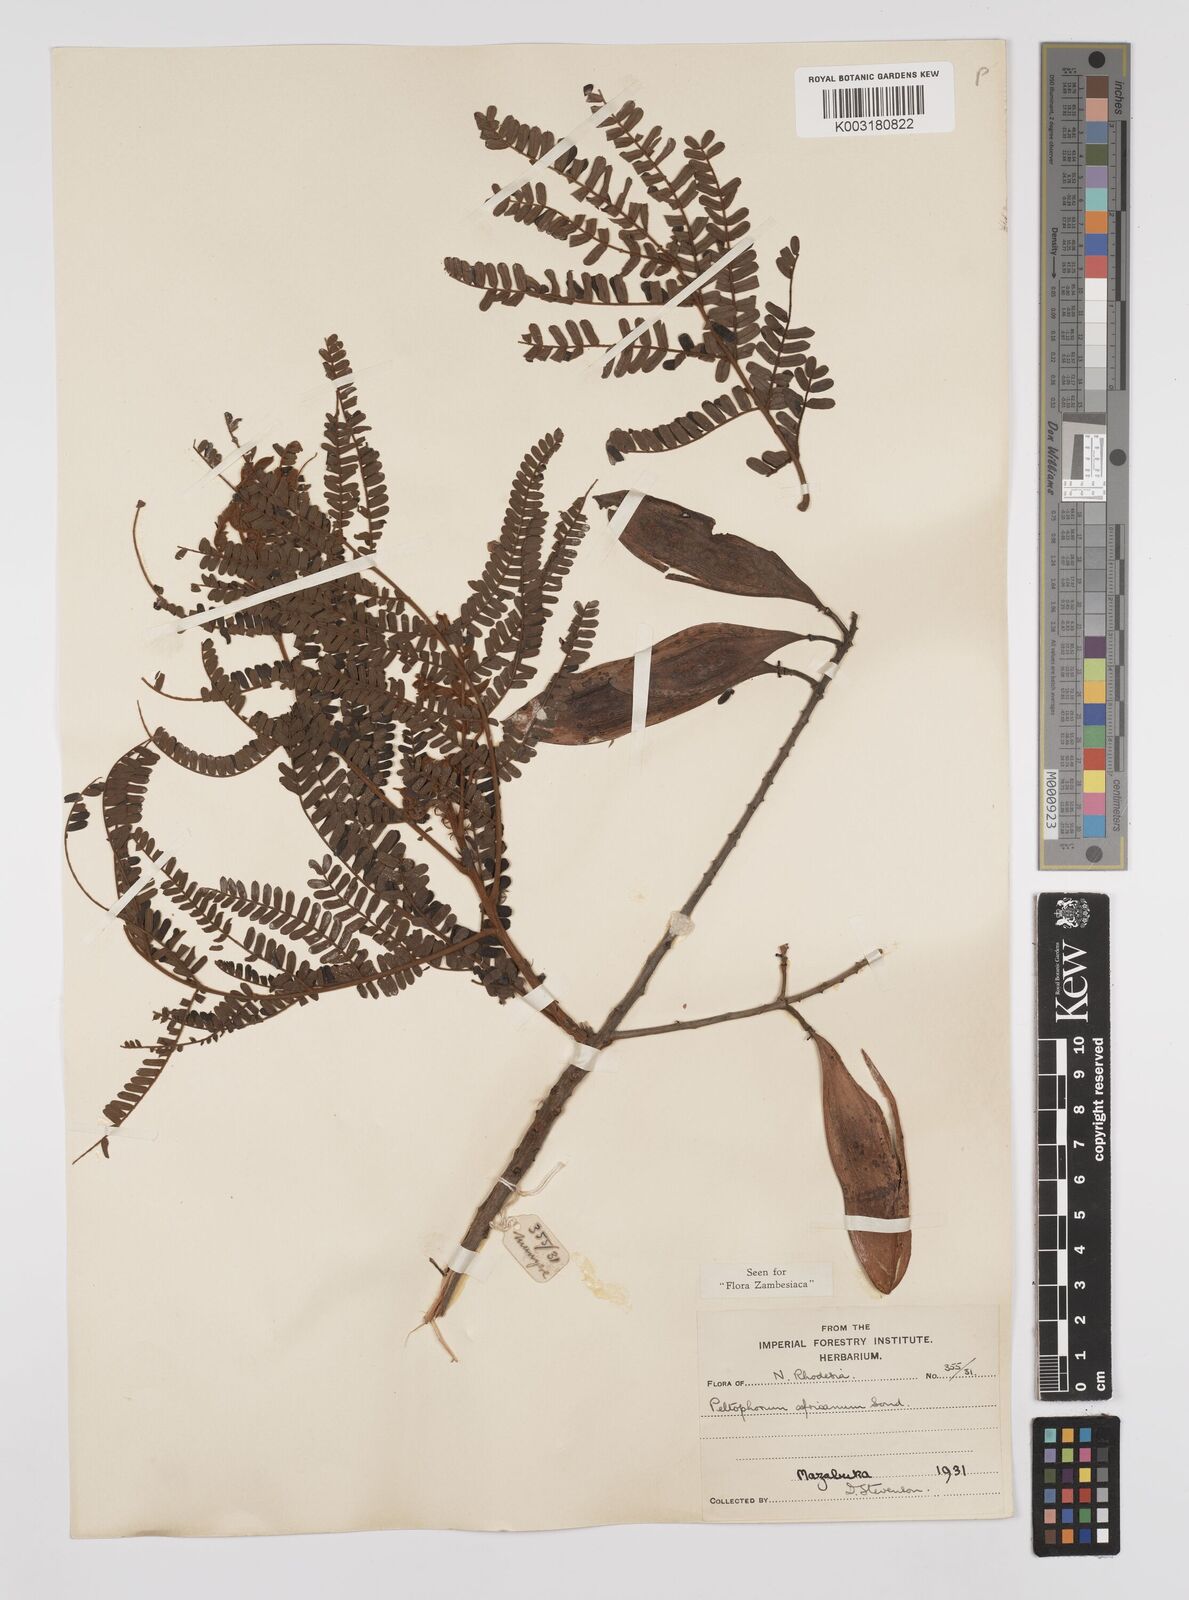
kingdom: Plantae
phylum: Tracheophyta
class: Magnoliopsida
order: Fabales
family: Fabaceae
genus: Peltophorum
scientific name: Peltophorum africanum
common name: African black wattle
